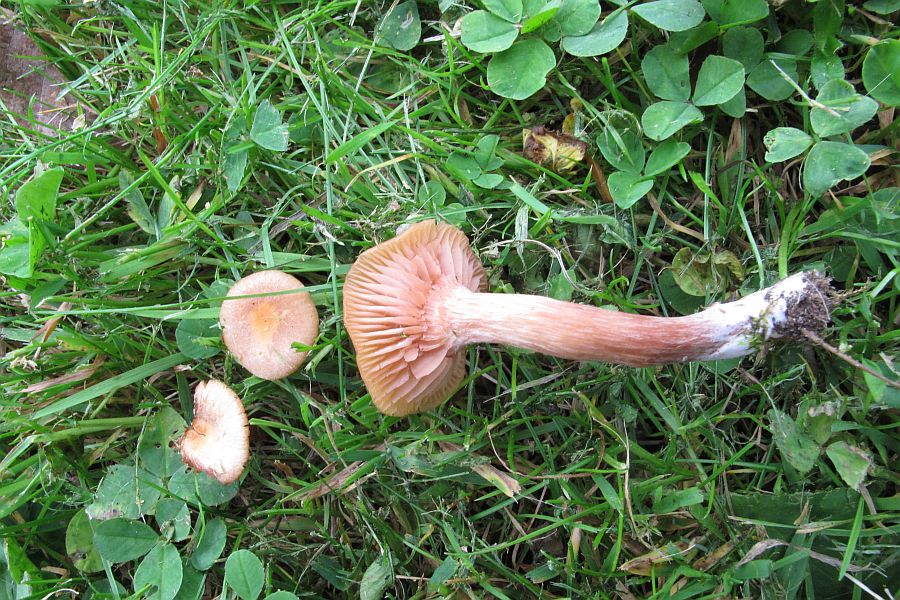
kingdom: Fungi
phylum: Basidiomycota
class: Agaricomycetes
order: Agaricales
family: Hydnangiaceae
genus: Laccaria
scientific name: Laccaria laccata
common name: rød ametysthat
